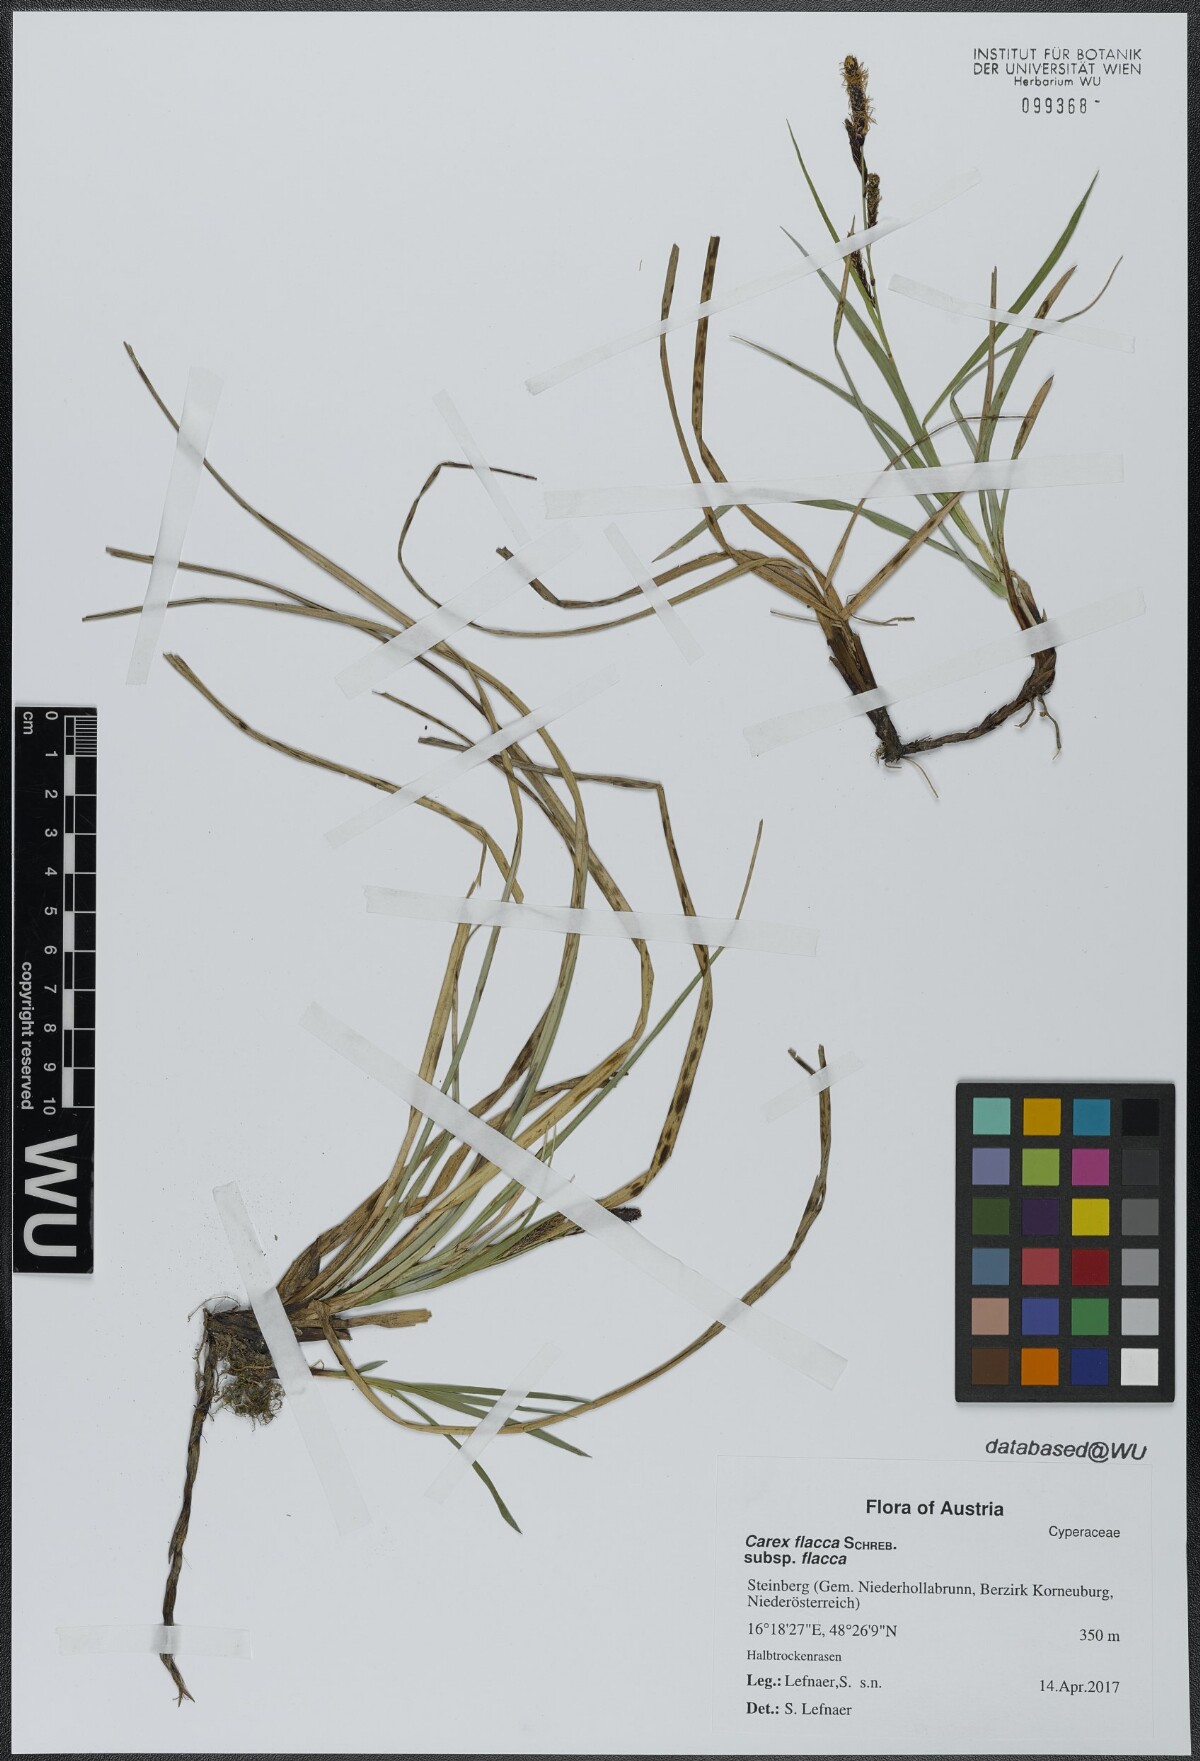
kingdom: Plantae
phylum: Tracheophyta
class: Liliopsida
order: Poales
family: Cyperaceae
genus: Carex
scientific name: Carex flacca
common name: Glaucous sedge
